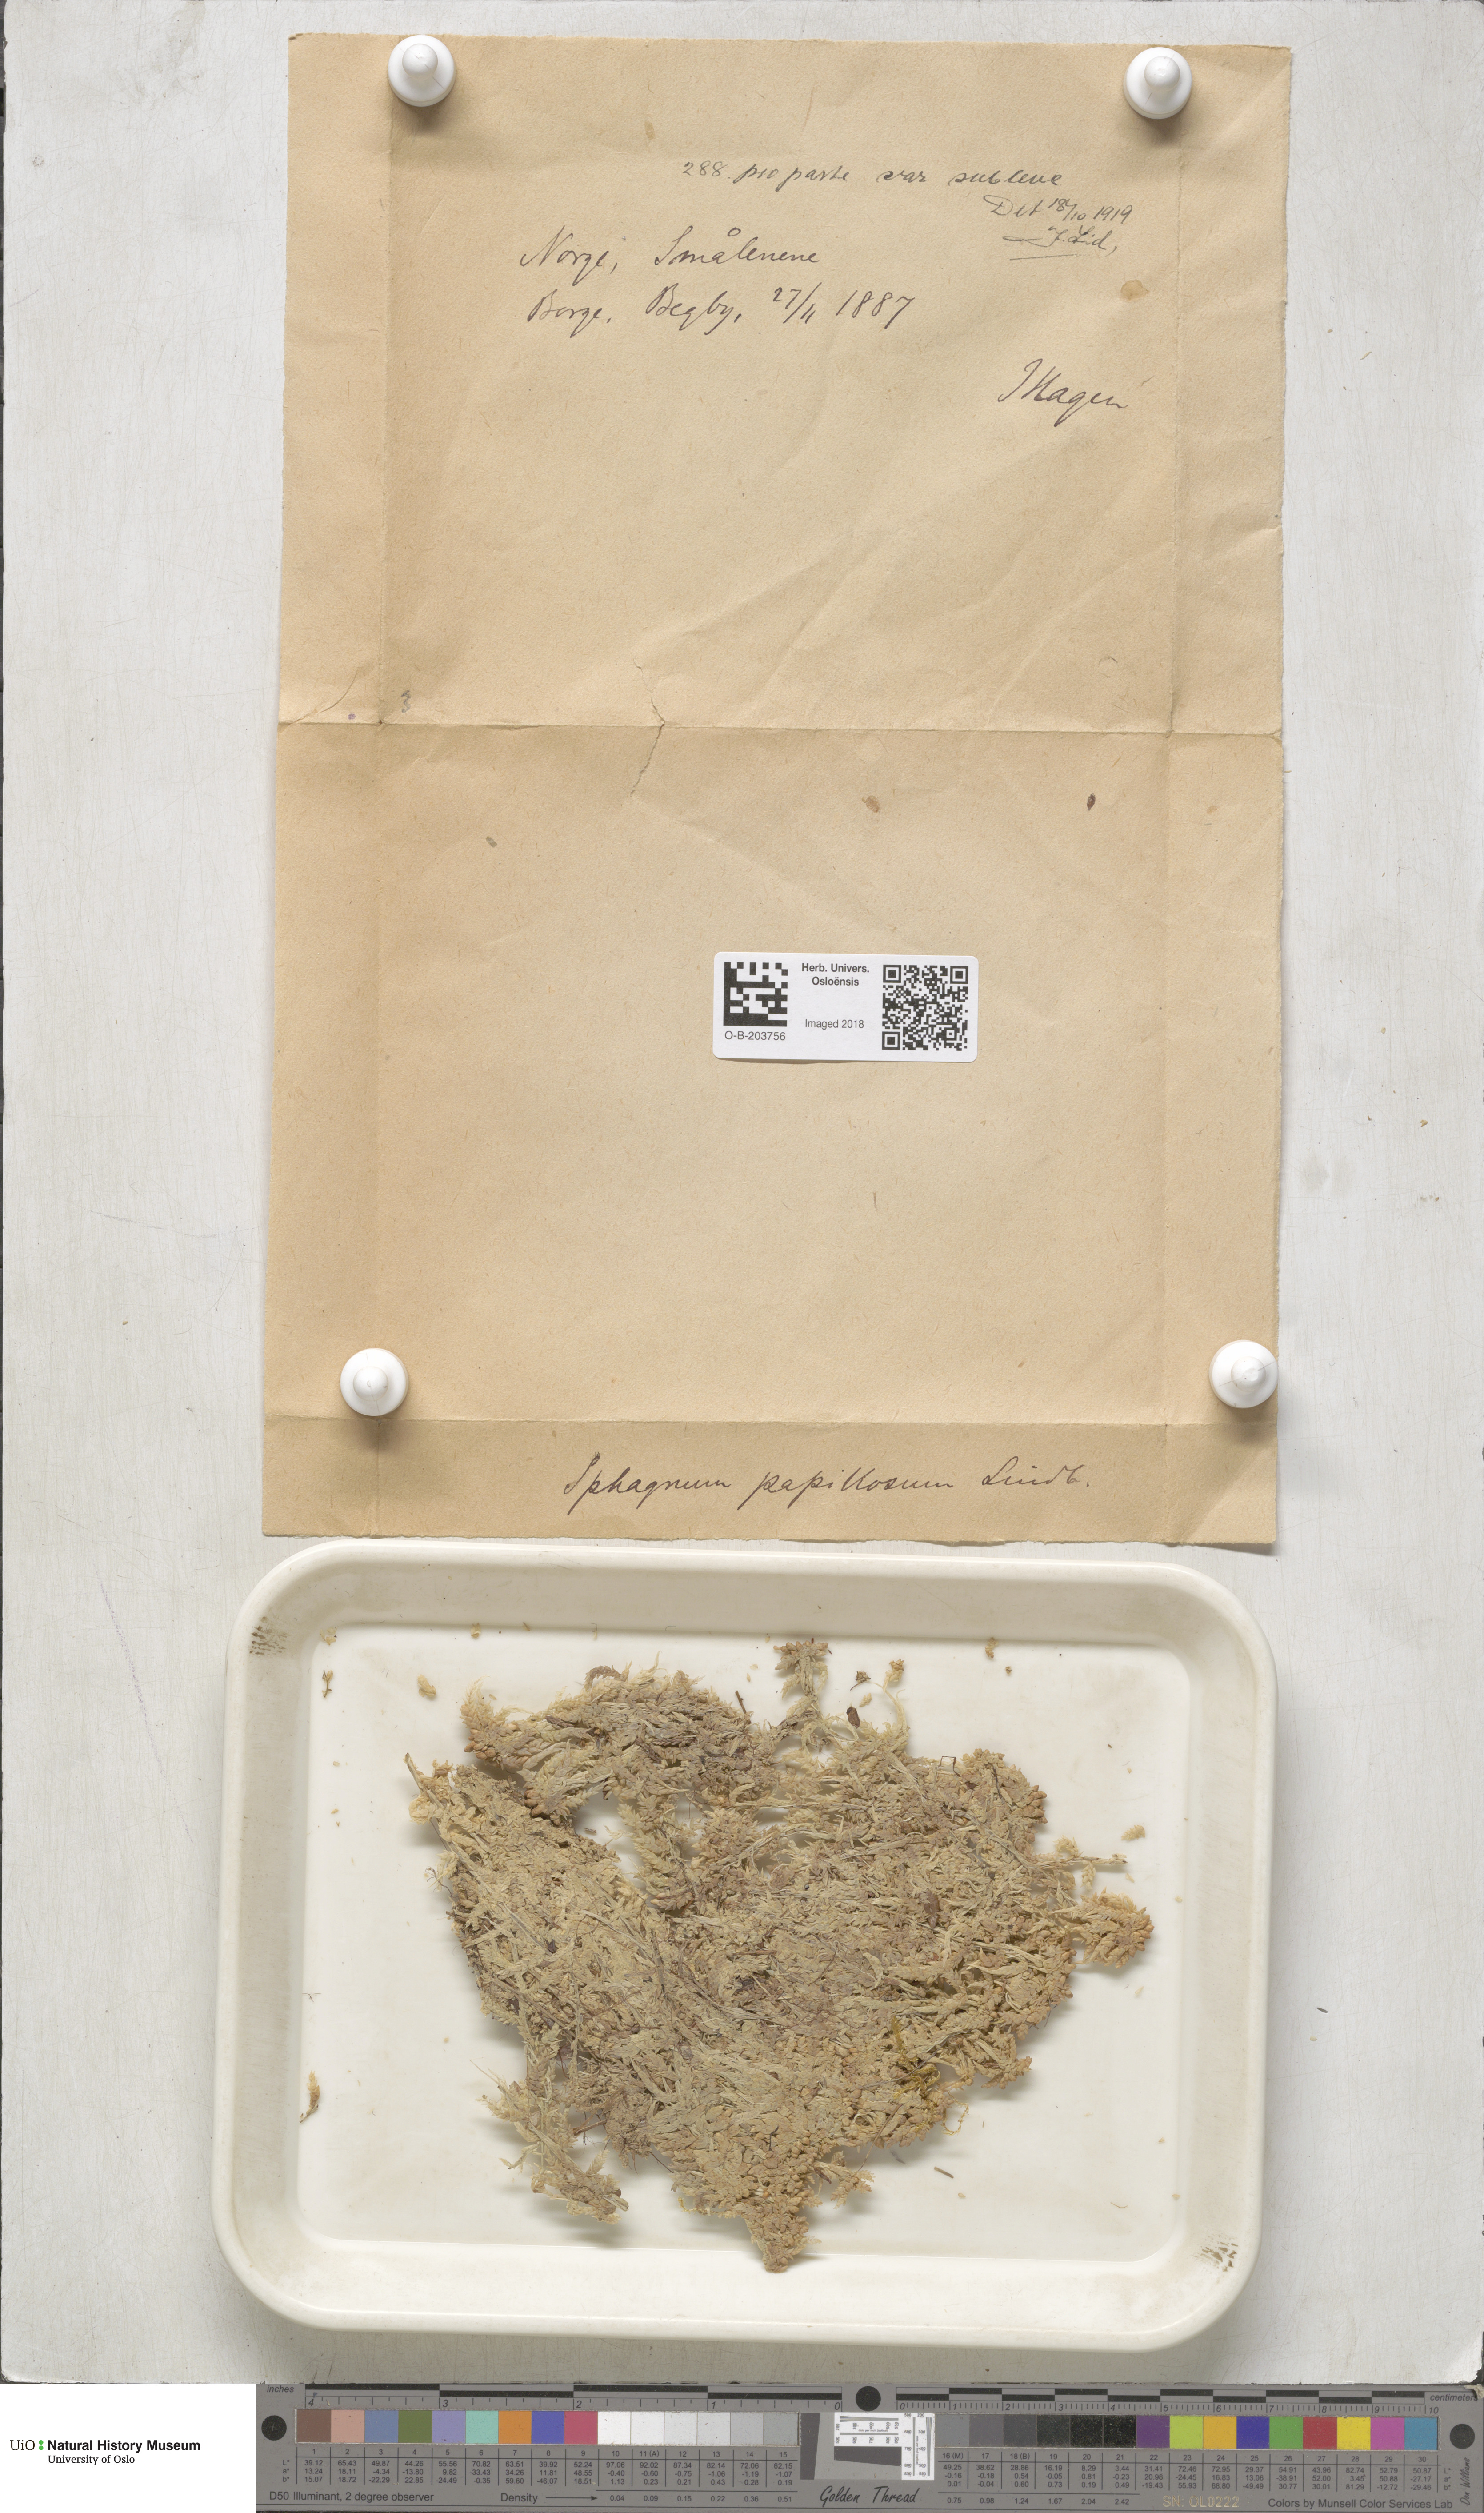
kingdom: Plantae
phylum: Bryophyta
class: Sphagnopsida
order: Sphagnales
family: Sphagnaceae
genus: Sphagnum
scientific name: Sphagnum papillosum
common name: Papillose peat moss
